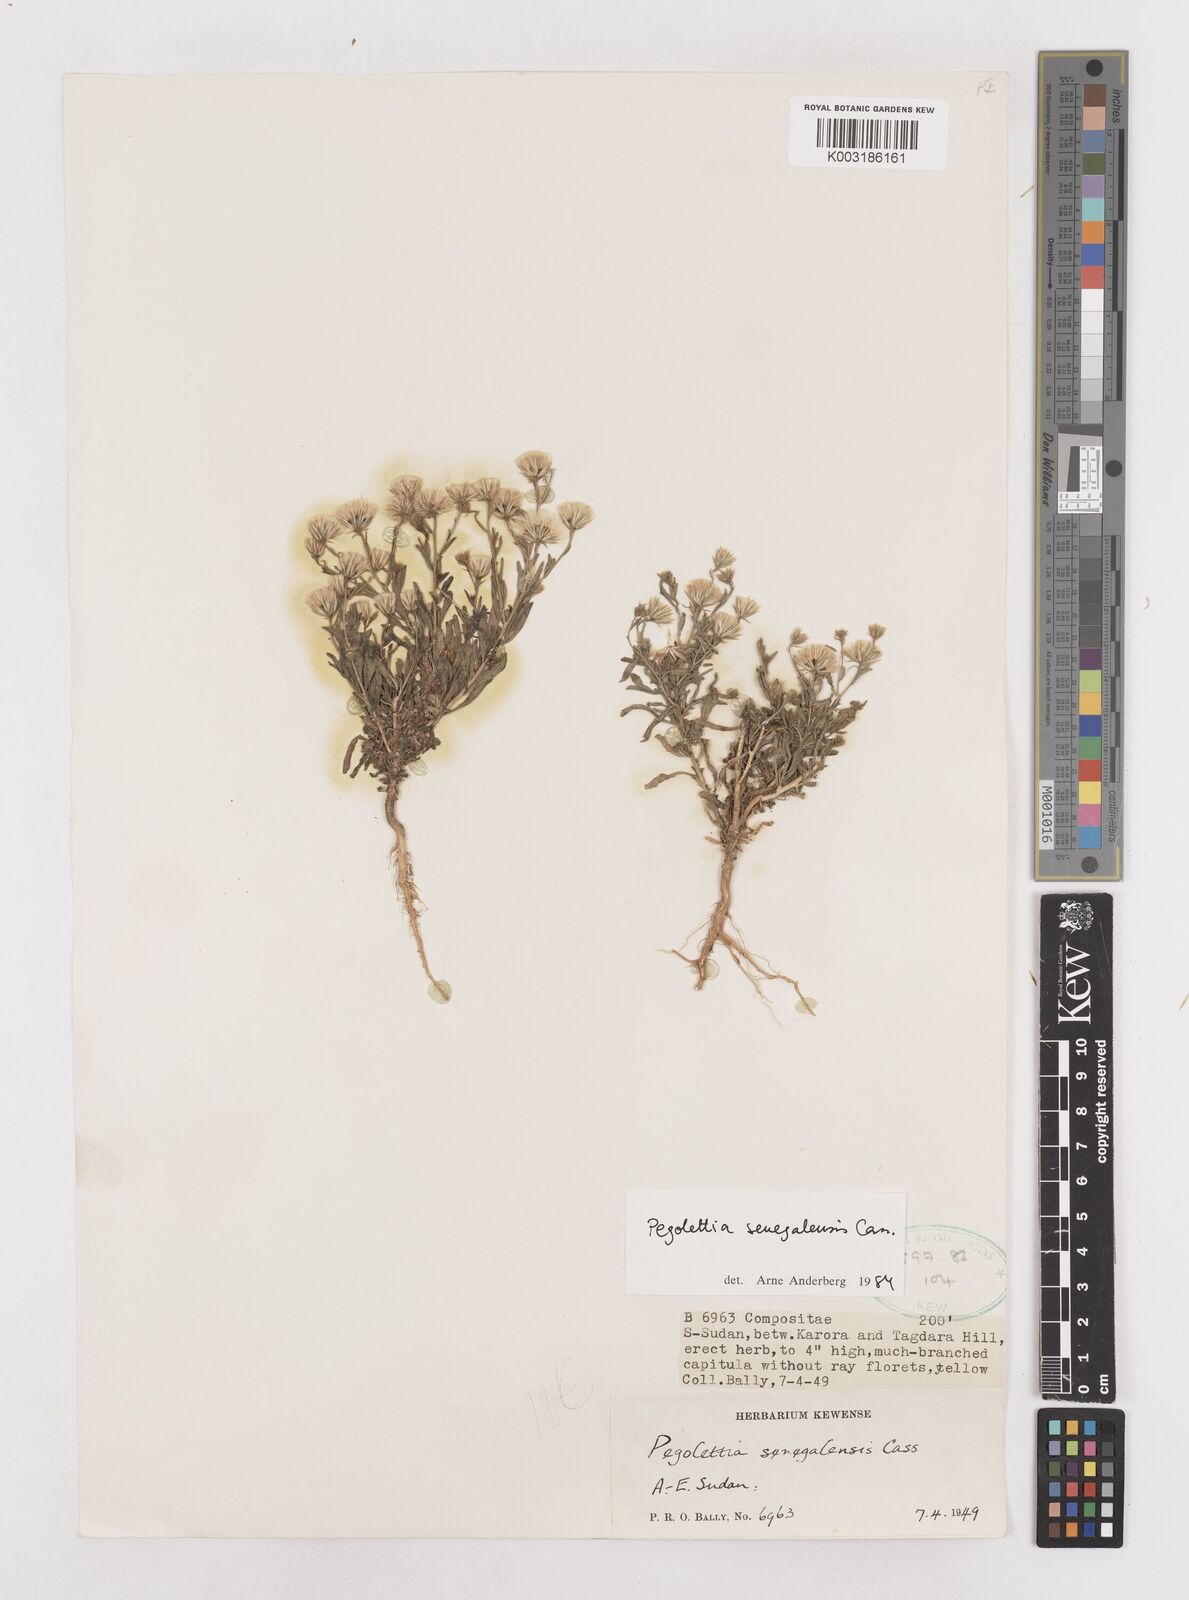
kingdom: Plantae
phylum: Tracheophyta
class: Magnoliopsida
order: Asterales
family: Asteraceae
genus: Pegolettia
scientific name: Pegolettia senegalensis
